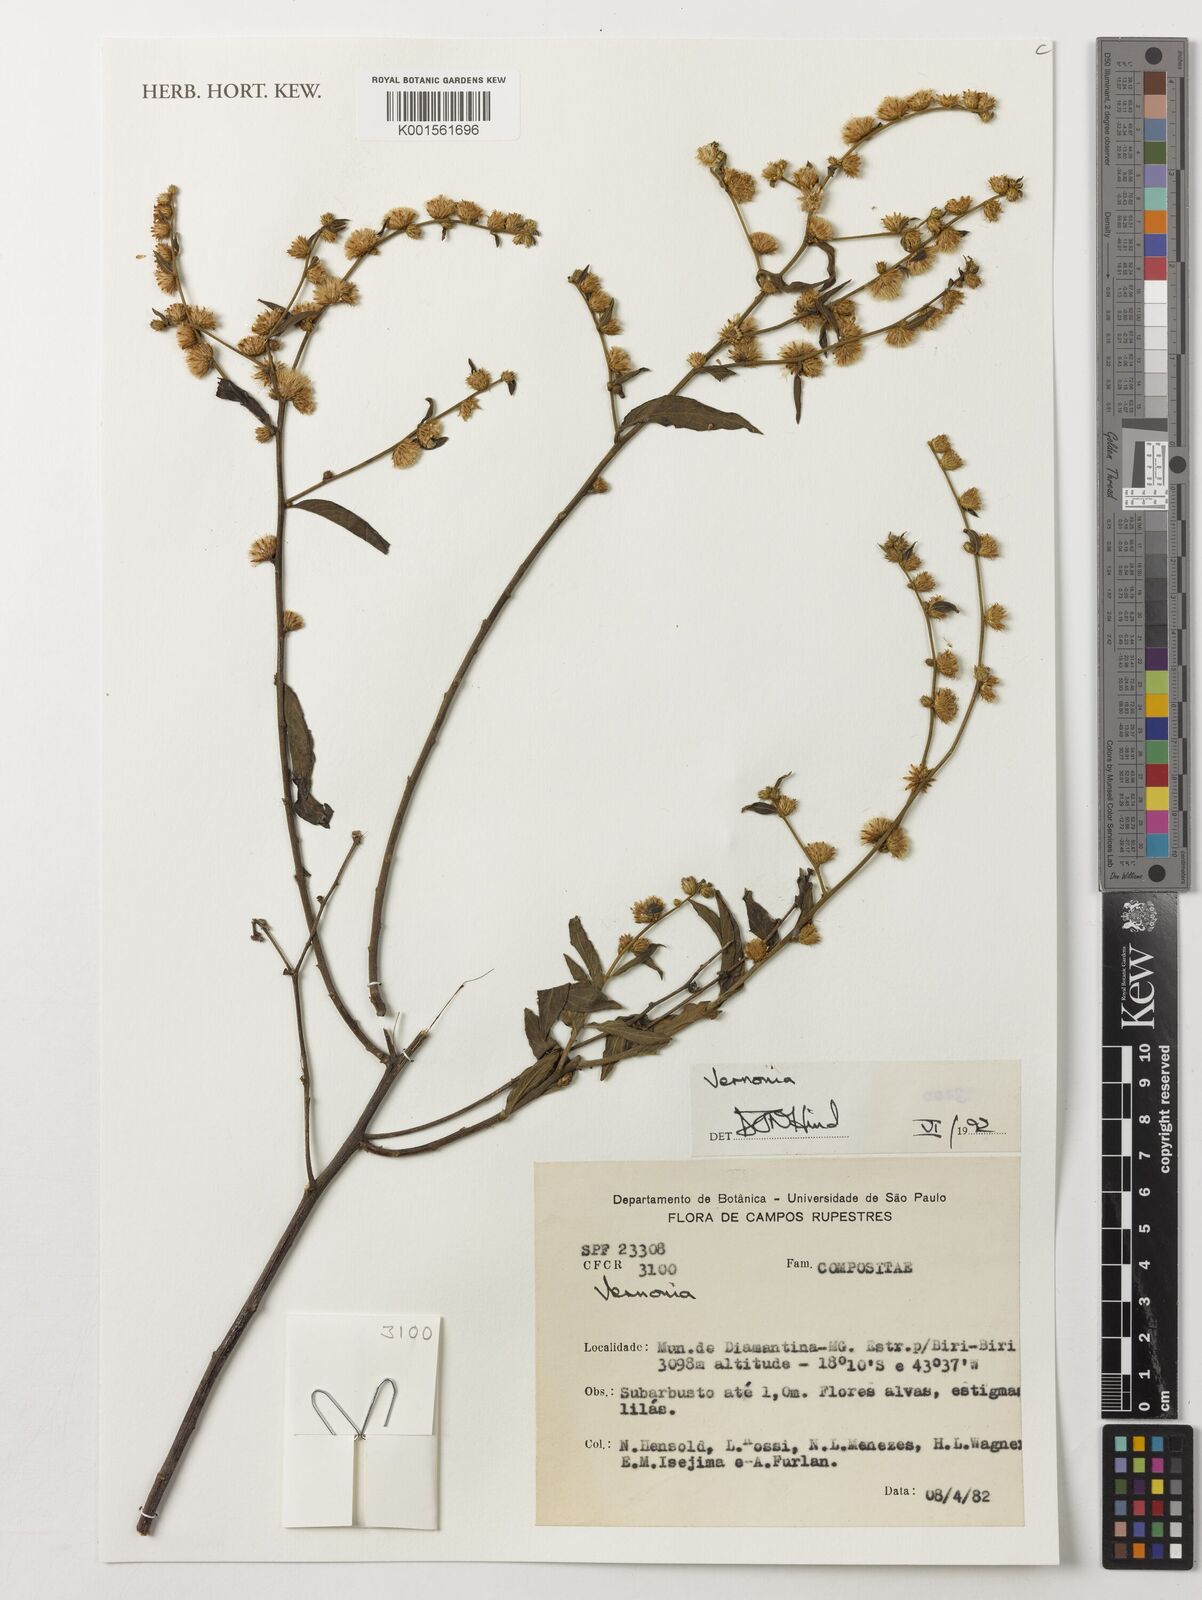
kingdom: Plantae
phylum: Tracheophyta
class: Magnoliopsida
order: Asterales
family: Asteraceae
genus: Lepidaploa
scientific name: Lepidaploa lilacina
